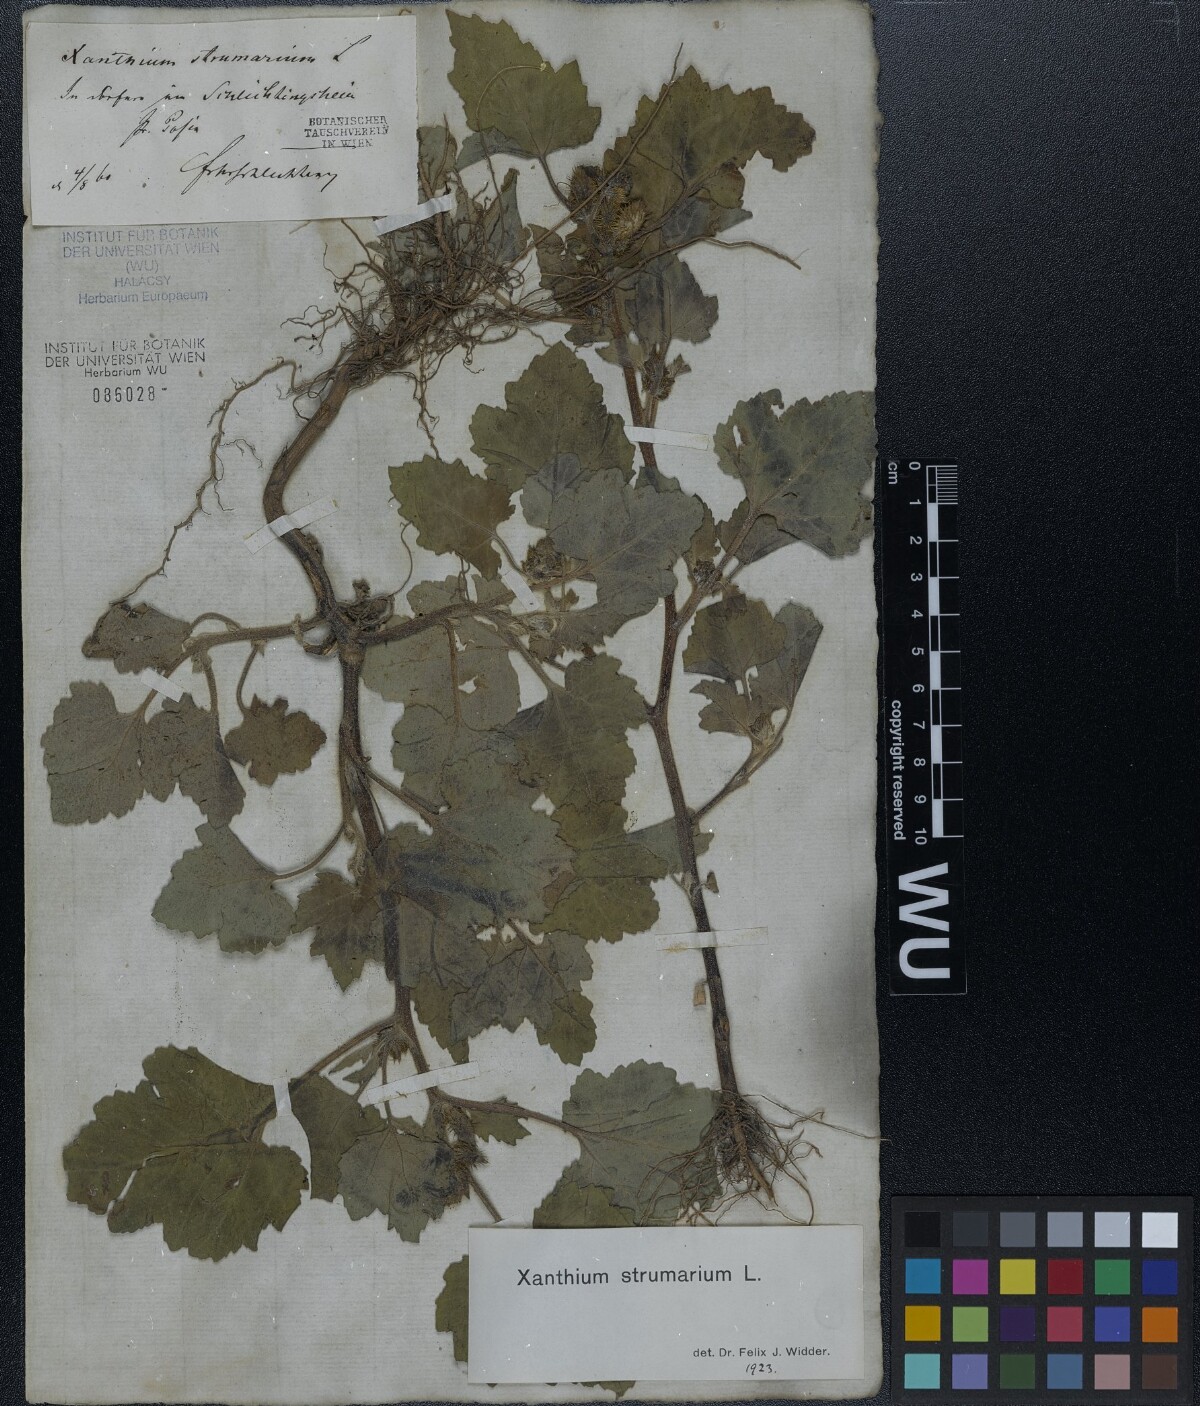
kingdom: Plantae
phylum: Tracheophyta
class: Magnoliopsida
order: Asterales
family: Asteraceae
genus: Xanthium
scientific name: Xanthium strumarium
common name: Rough cocklebur
